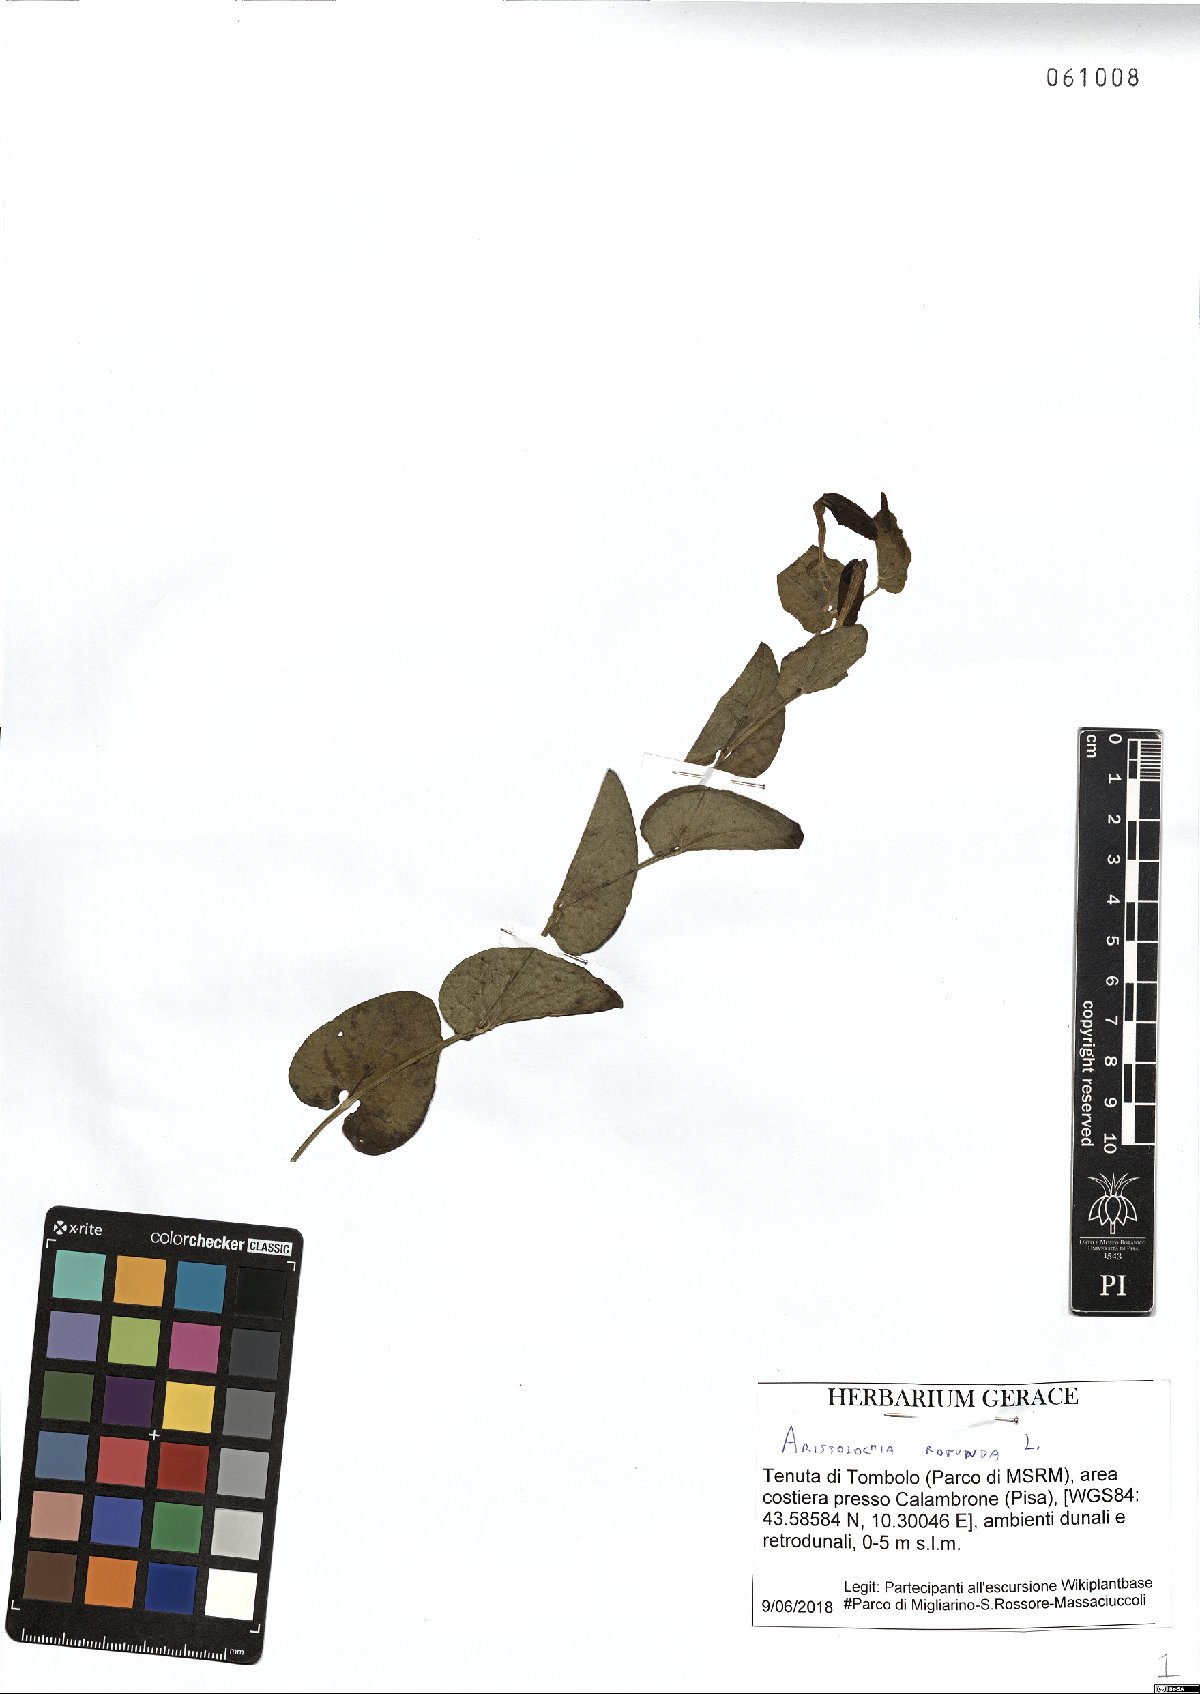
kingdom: Plantae
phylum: Tracheophyta
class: Magnoliopsida
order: Piperales
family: Aristolochiaceae
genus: Aristolochia
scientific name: Aristolochia rotunda
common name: Smearwort
